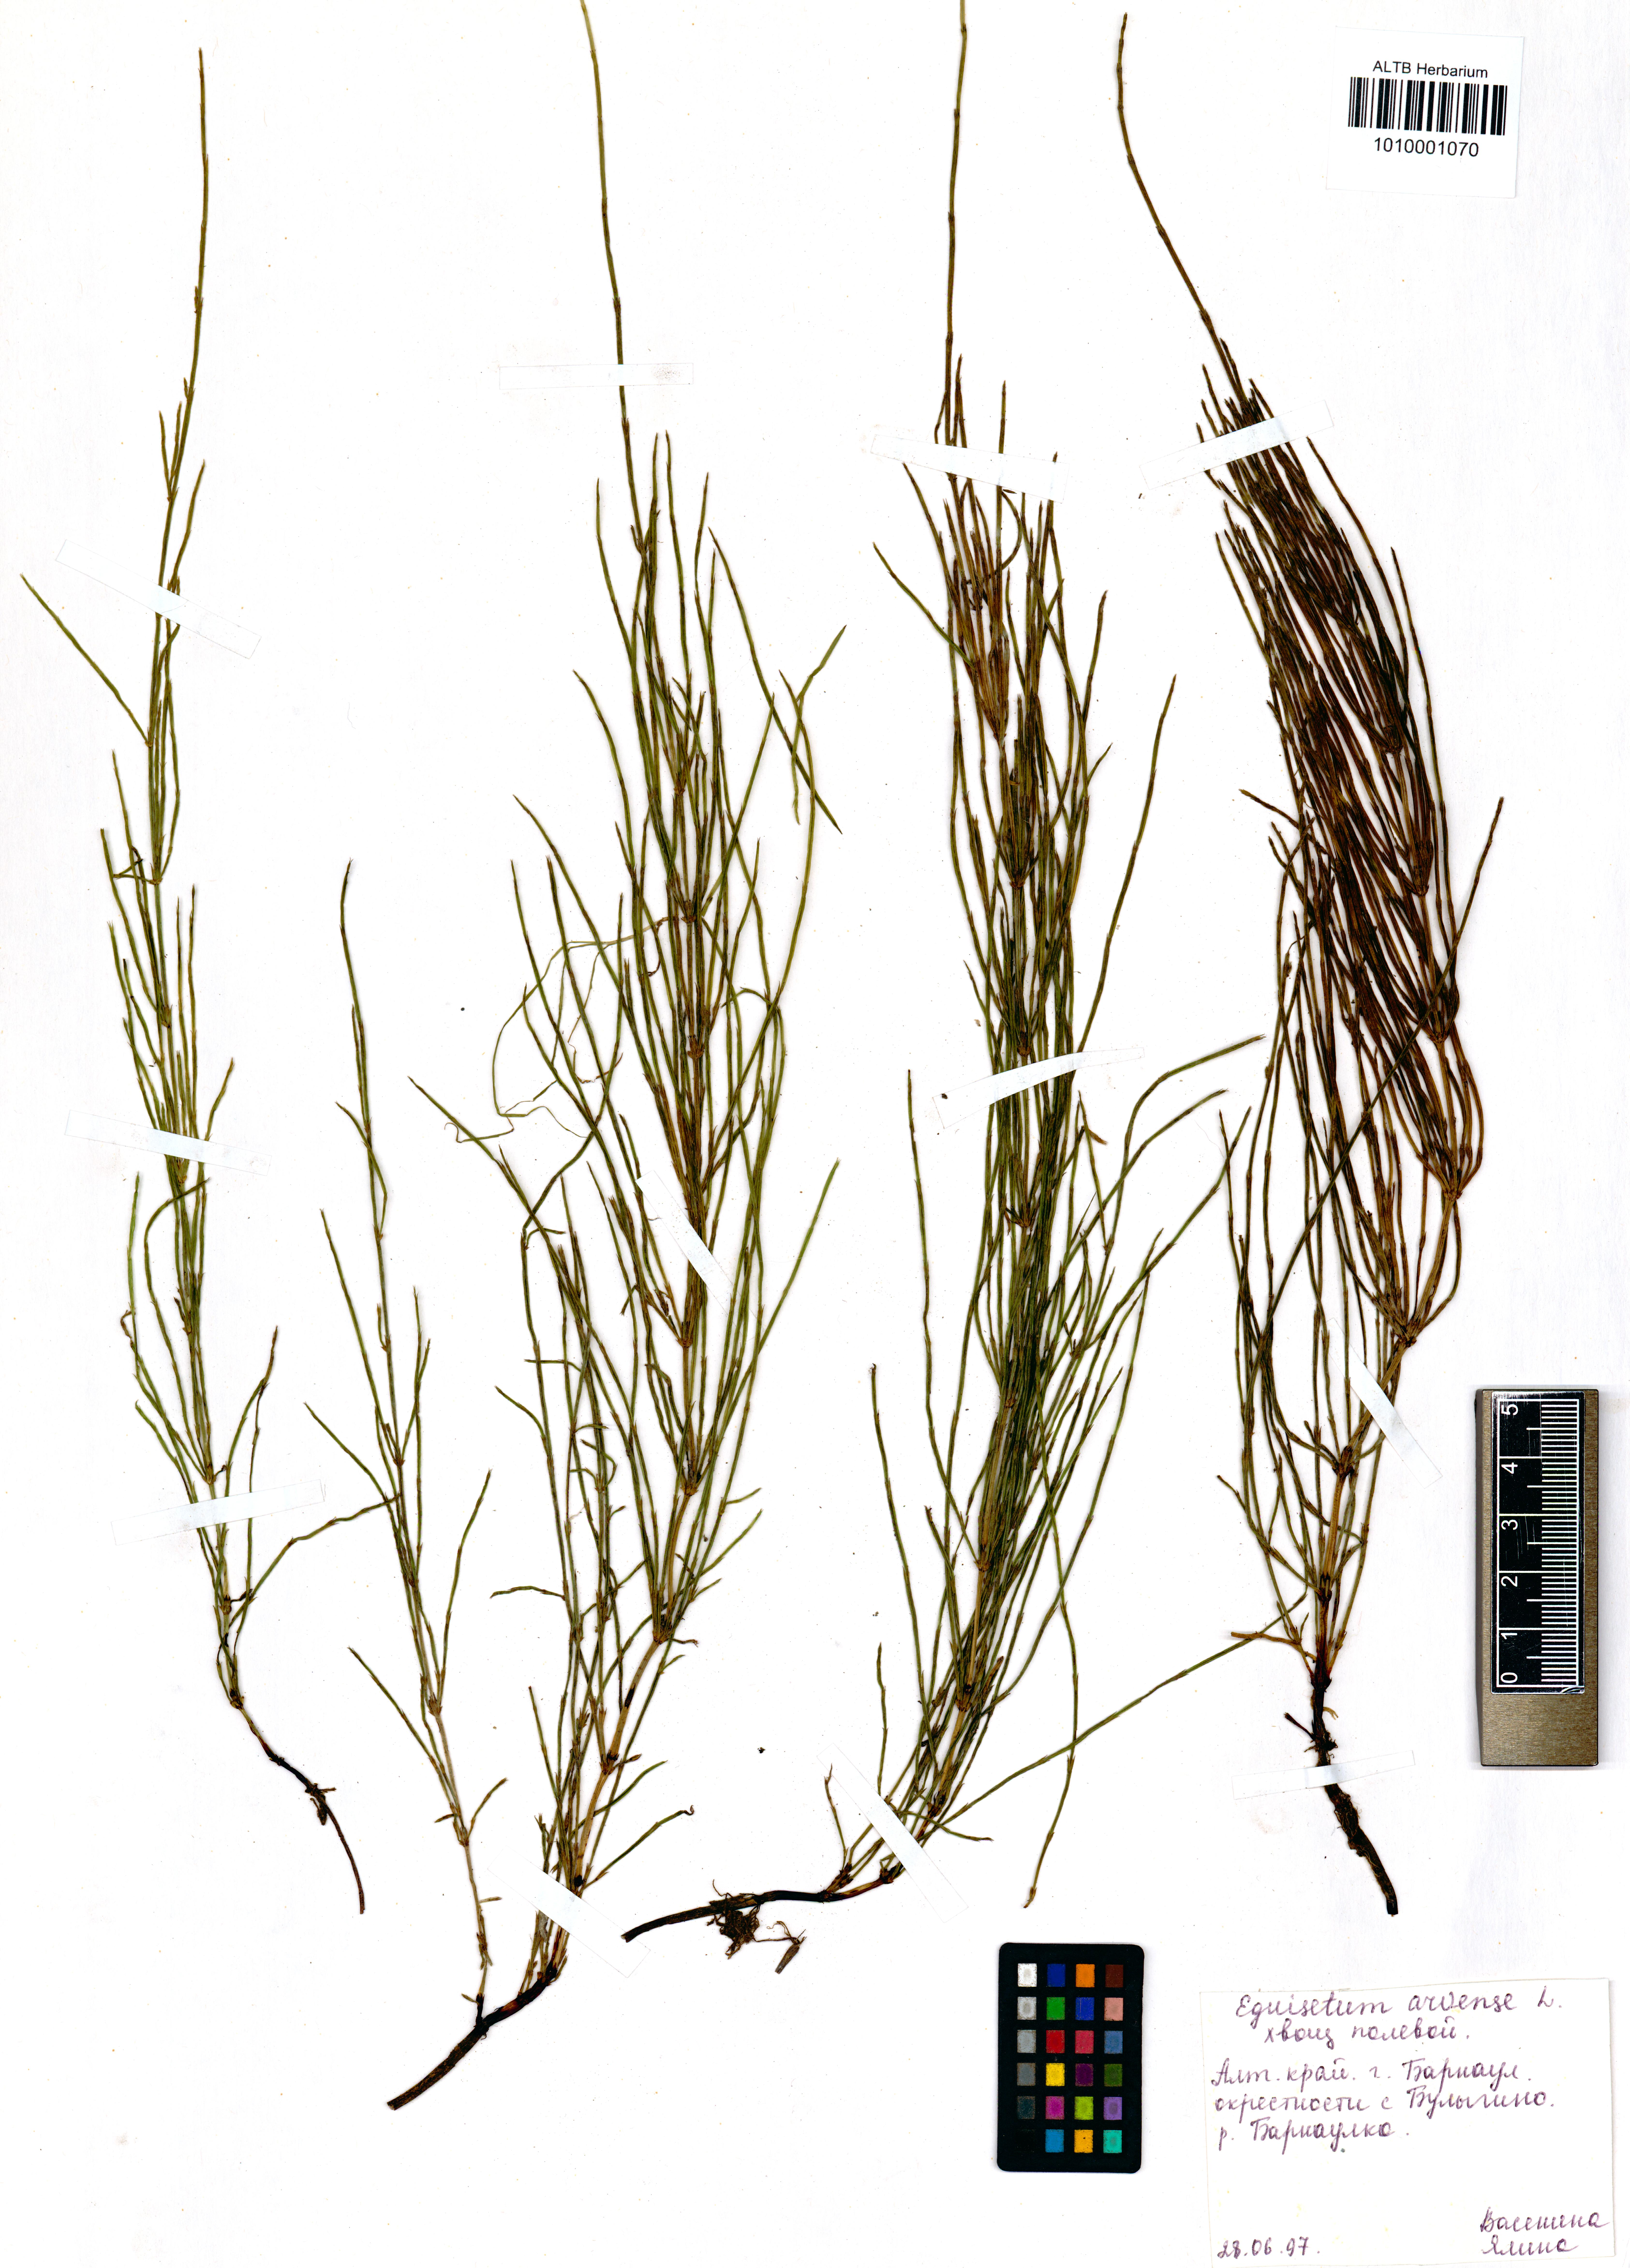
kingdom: Plantae
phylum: Tracheophyta
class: Polypodiopsida
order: Equisetales
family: Equisetaceae
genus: Equisetum
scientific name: Equisetum arvense
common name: Field horsetail
